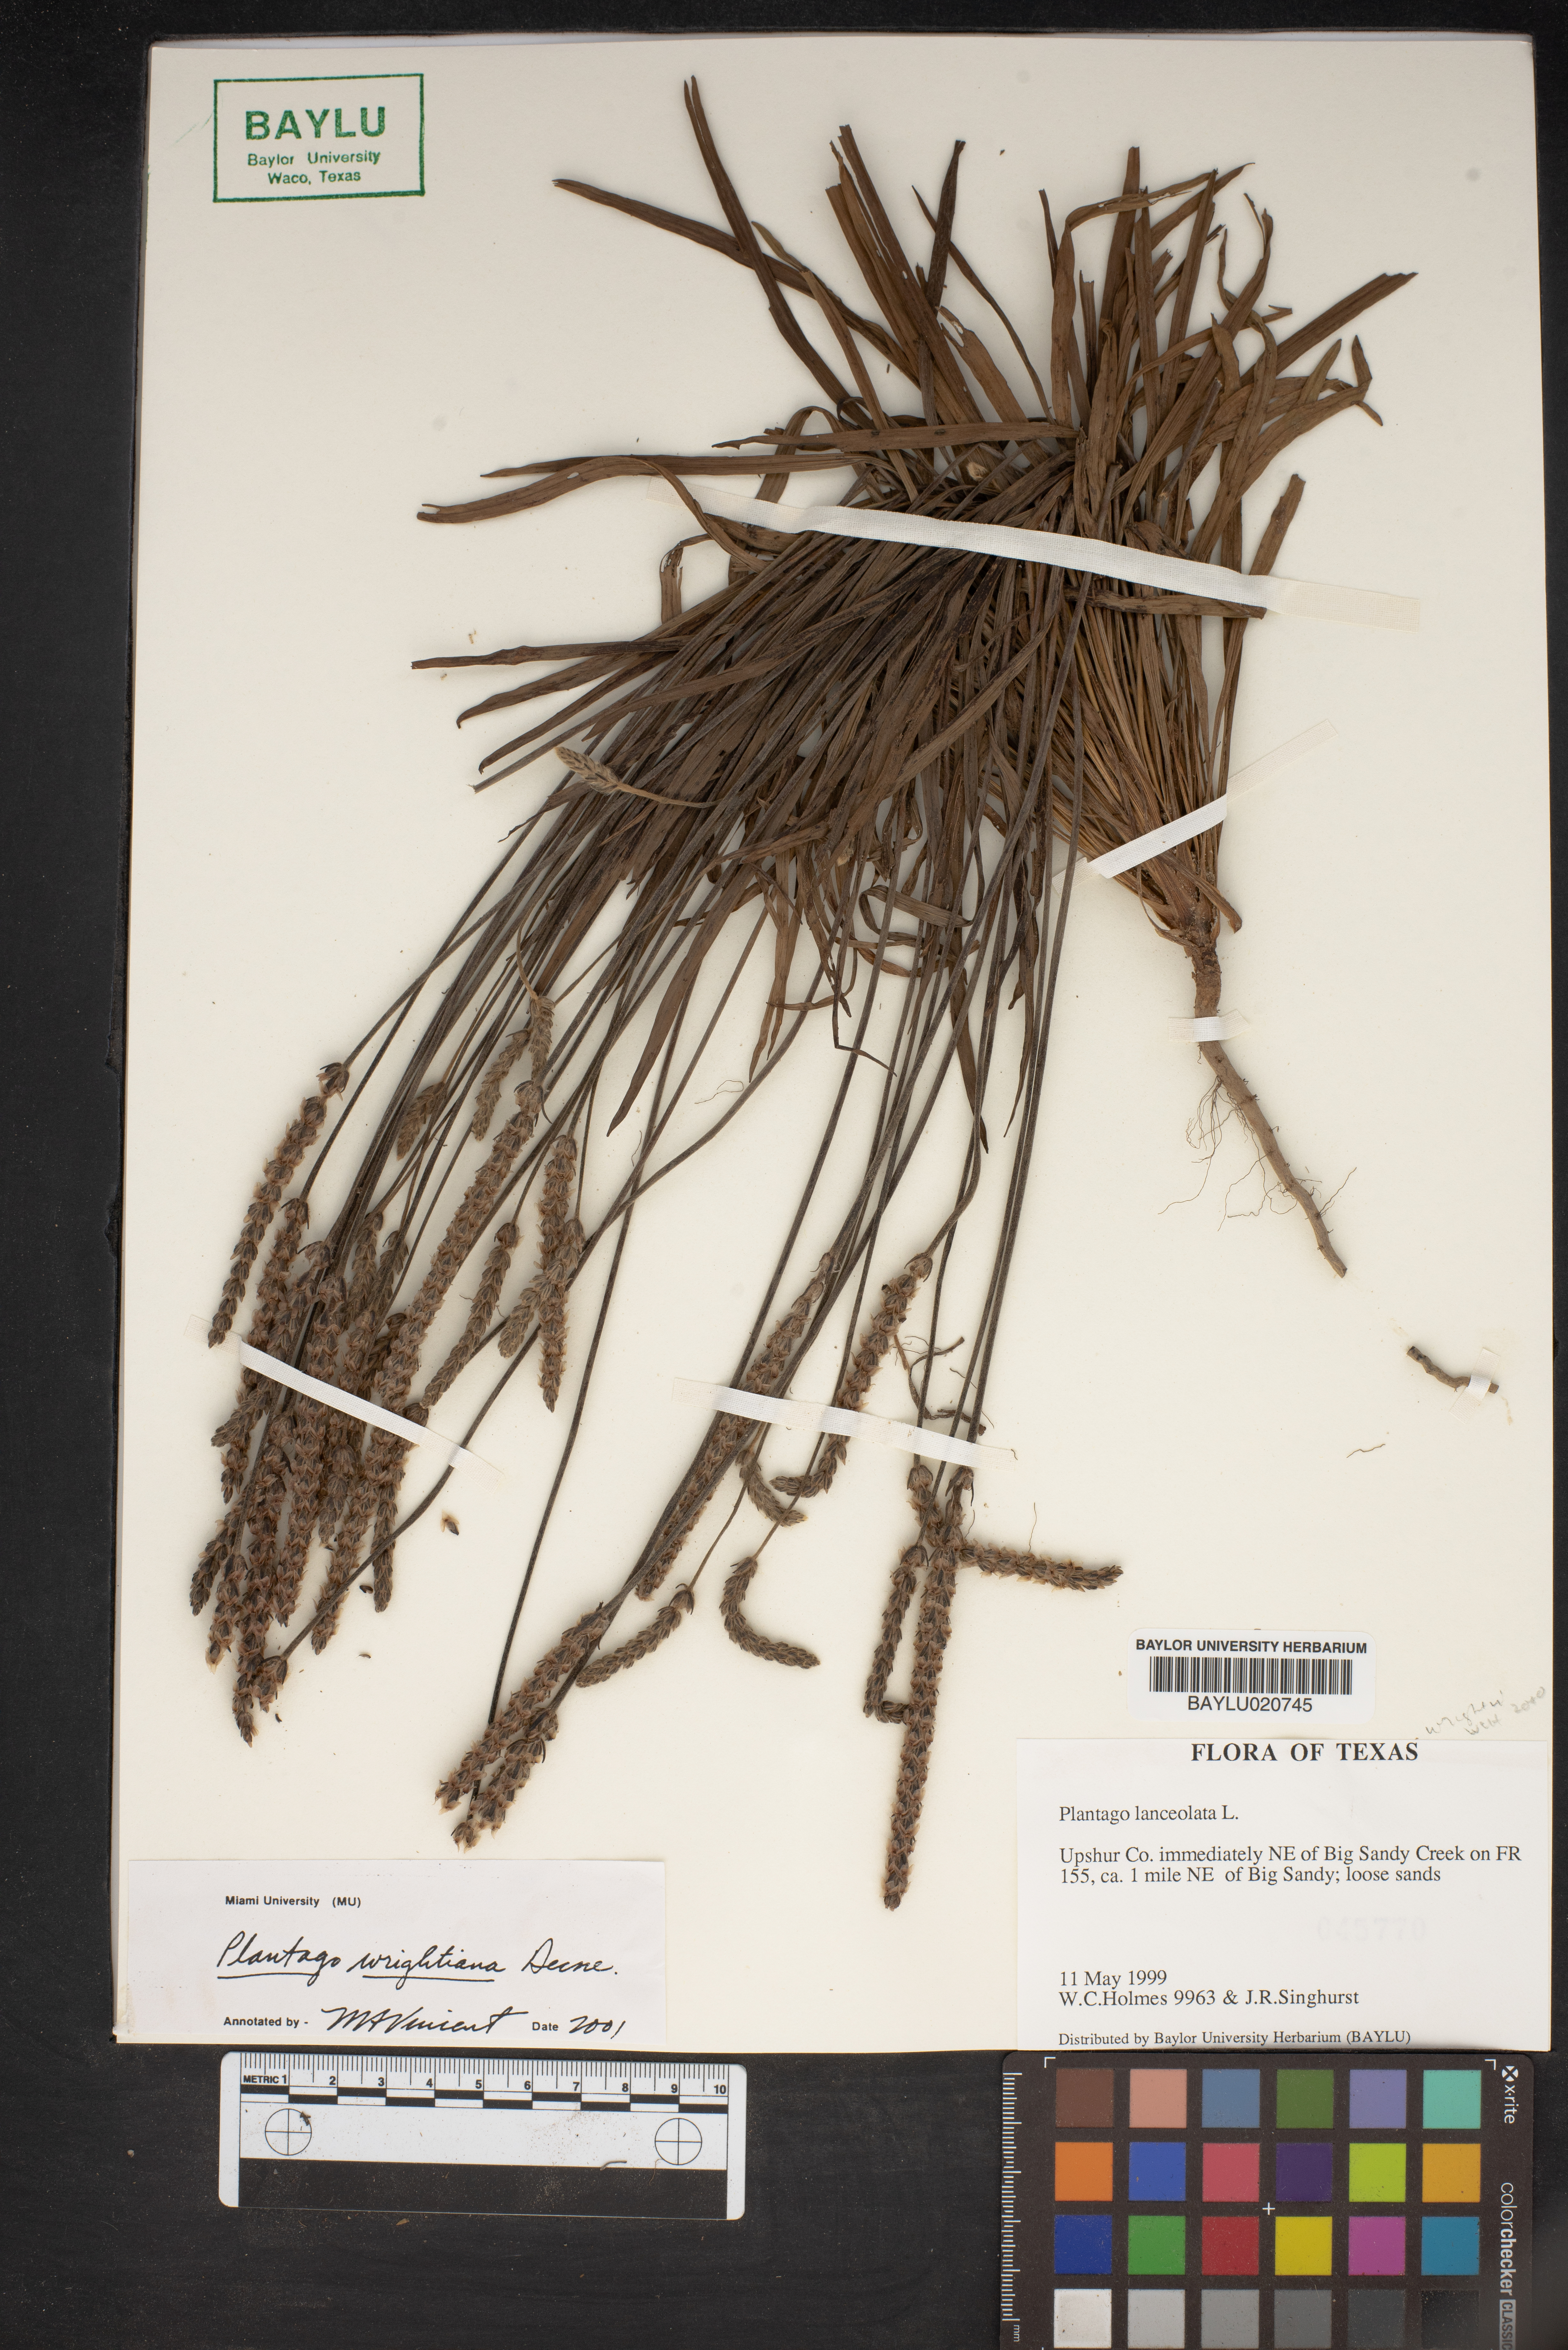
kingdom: Plantae
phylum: Tracheophyta
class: Magnoliopsida
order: Lamiales
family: Plantaginaceae
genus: Plantago
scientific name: Plantago wrightiana
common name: Wright's plantain
